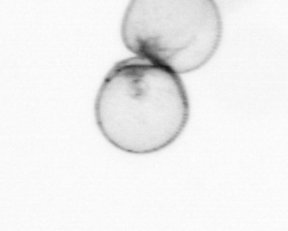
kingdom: Chromista
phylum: Ochrophyta
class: Bacillariophyceae
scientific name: Bacillariophyceae
